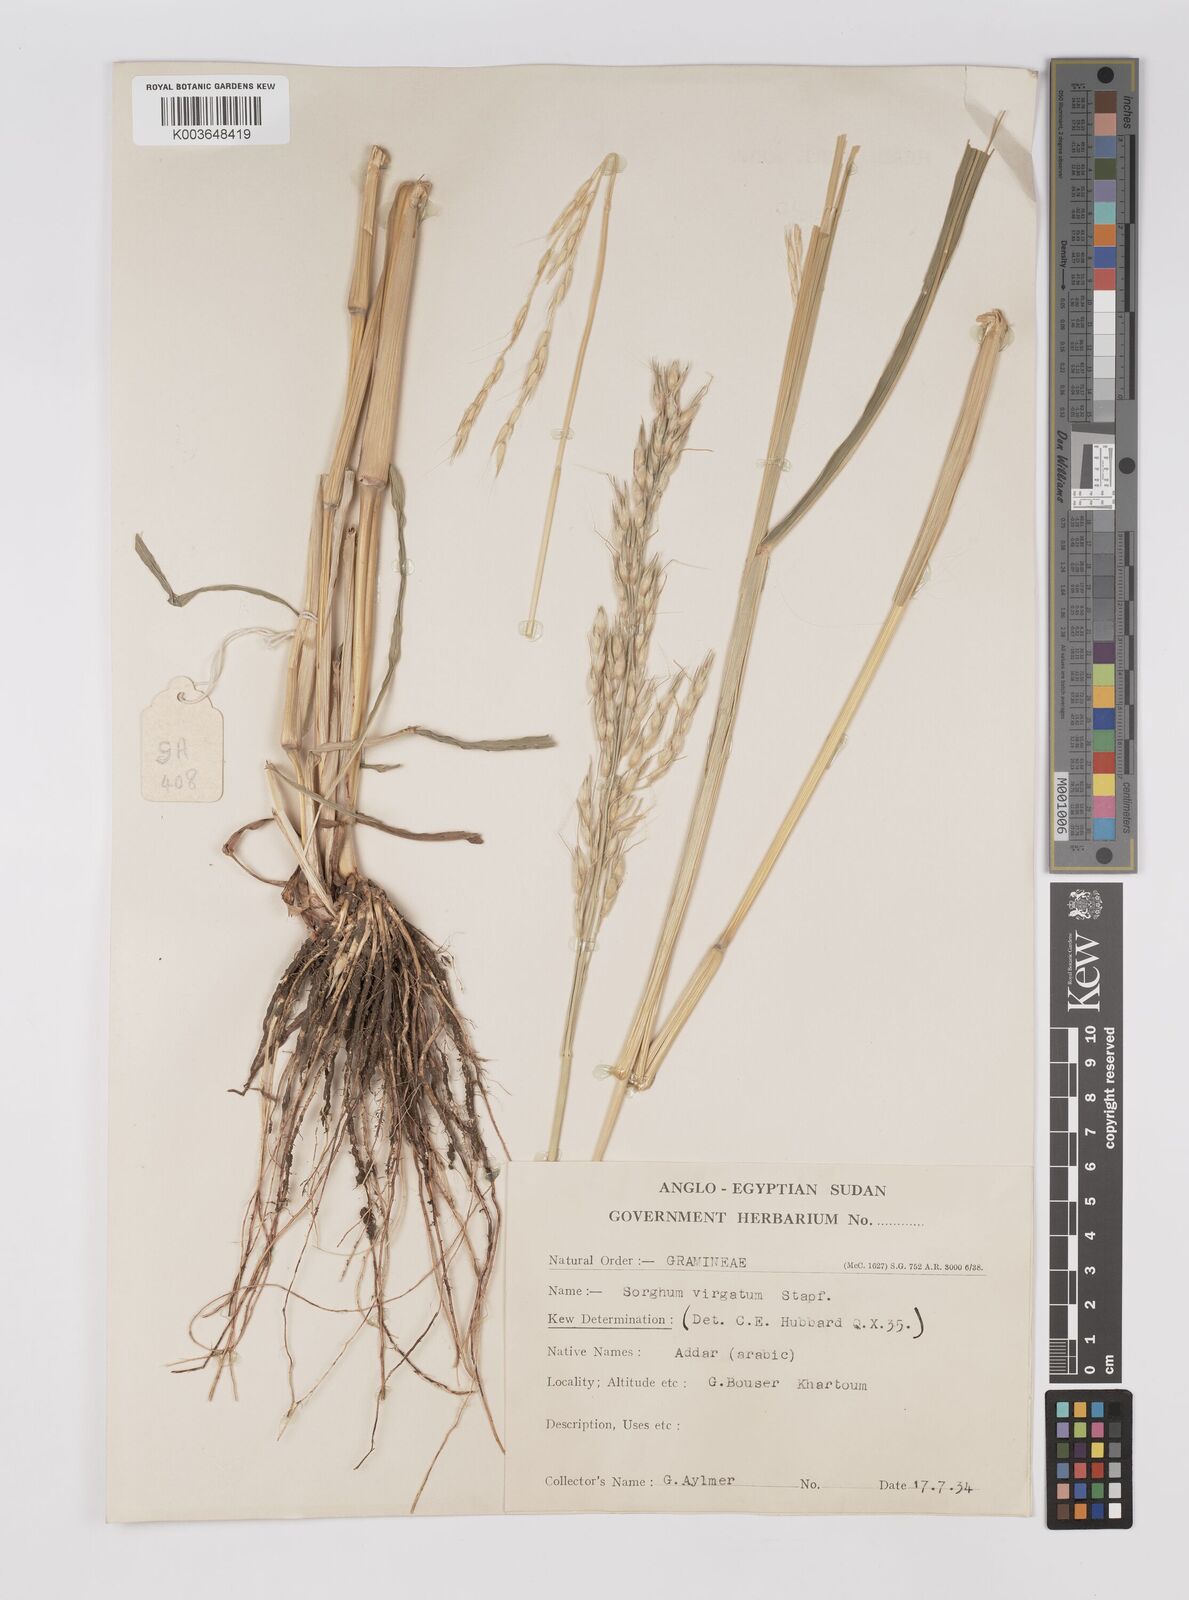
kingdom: Plantae
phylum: Tracheophyta
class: Liliopsida
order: Poales
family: Poaceae
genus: Sorghum
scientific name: Sorghum arundinaceum
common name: Sorghum
